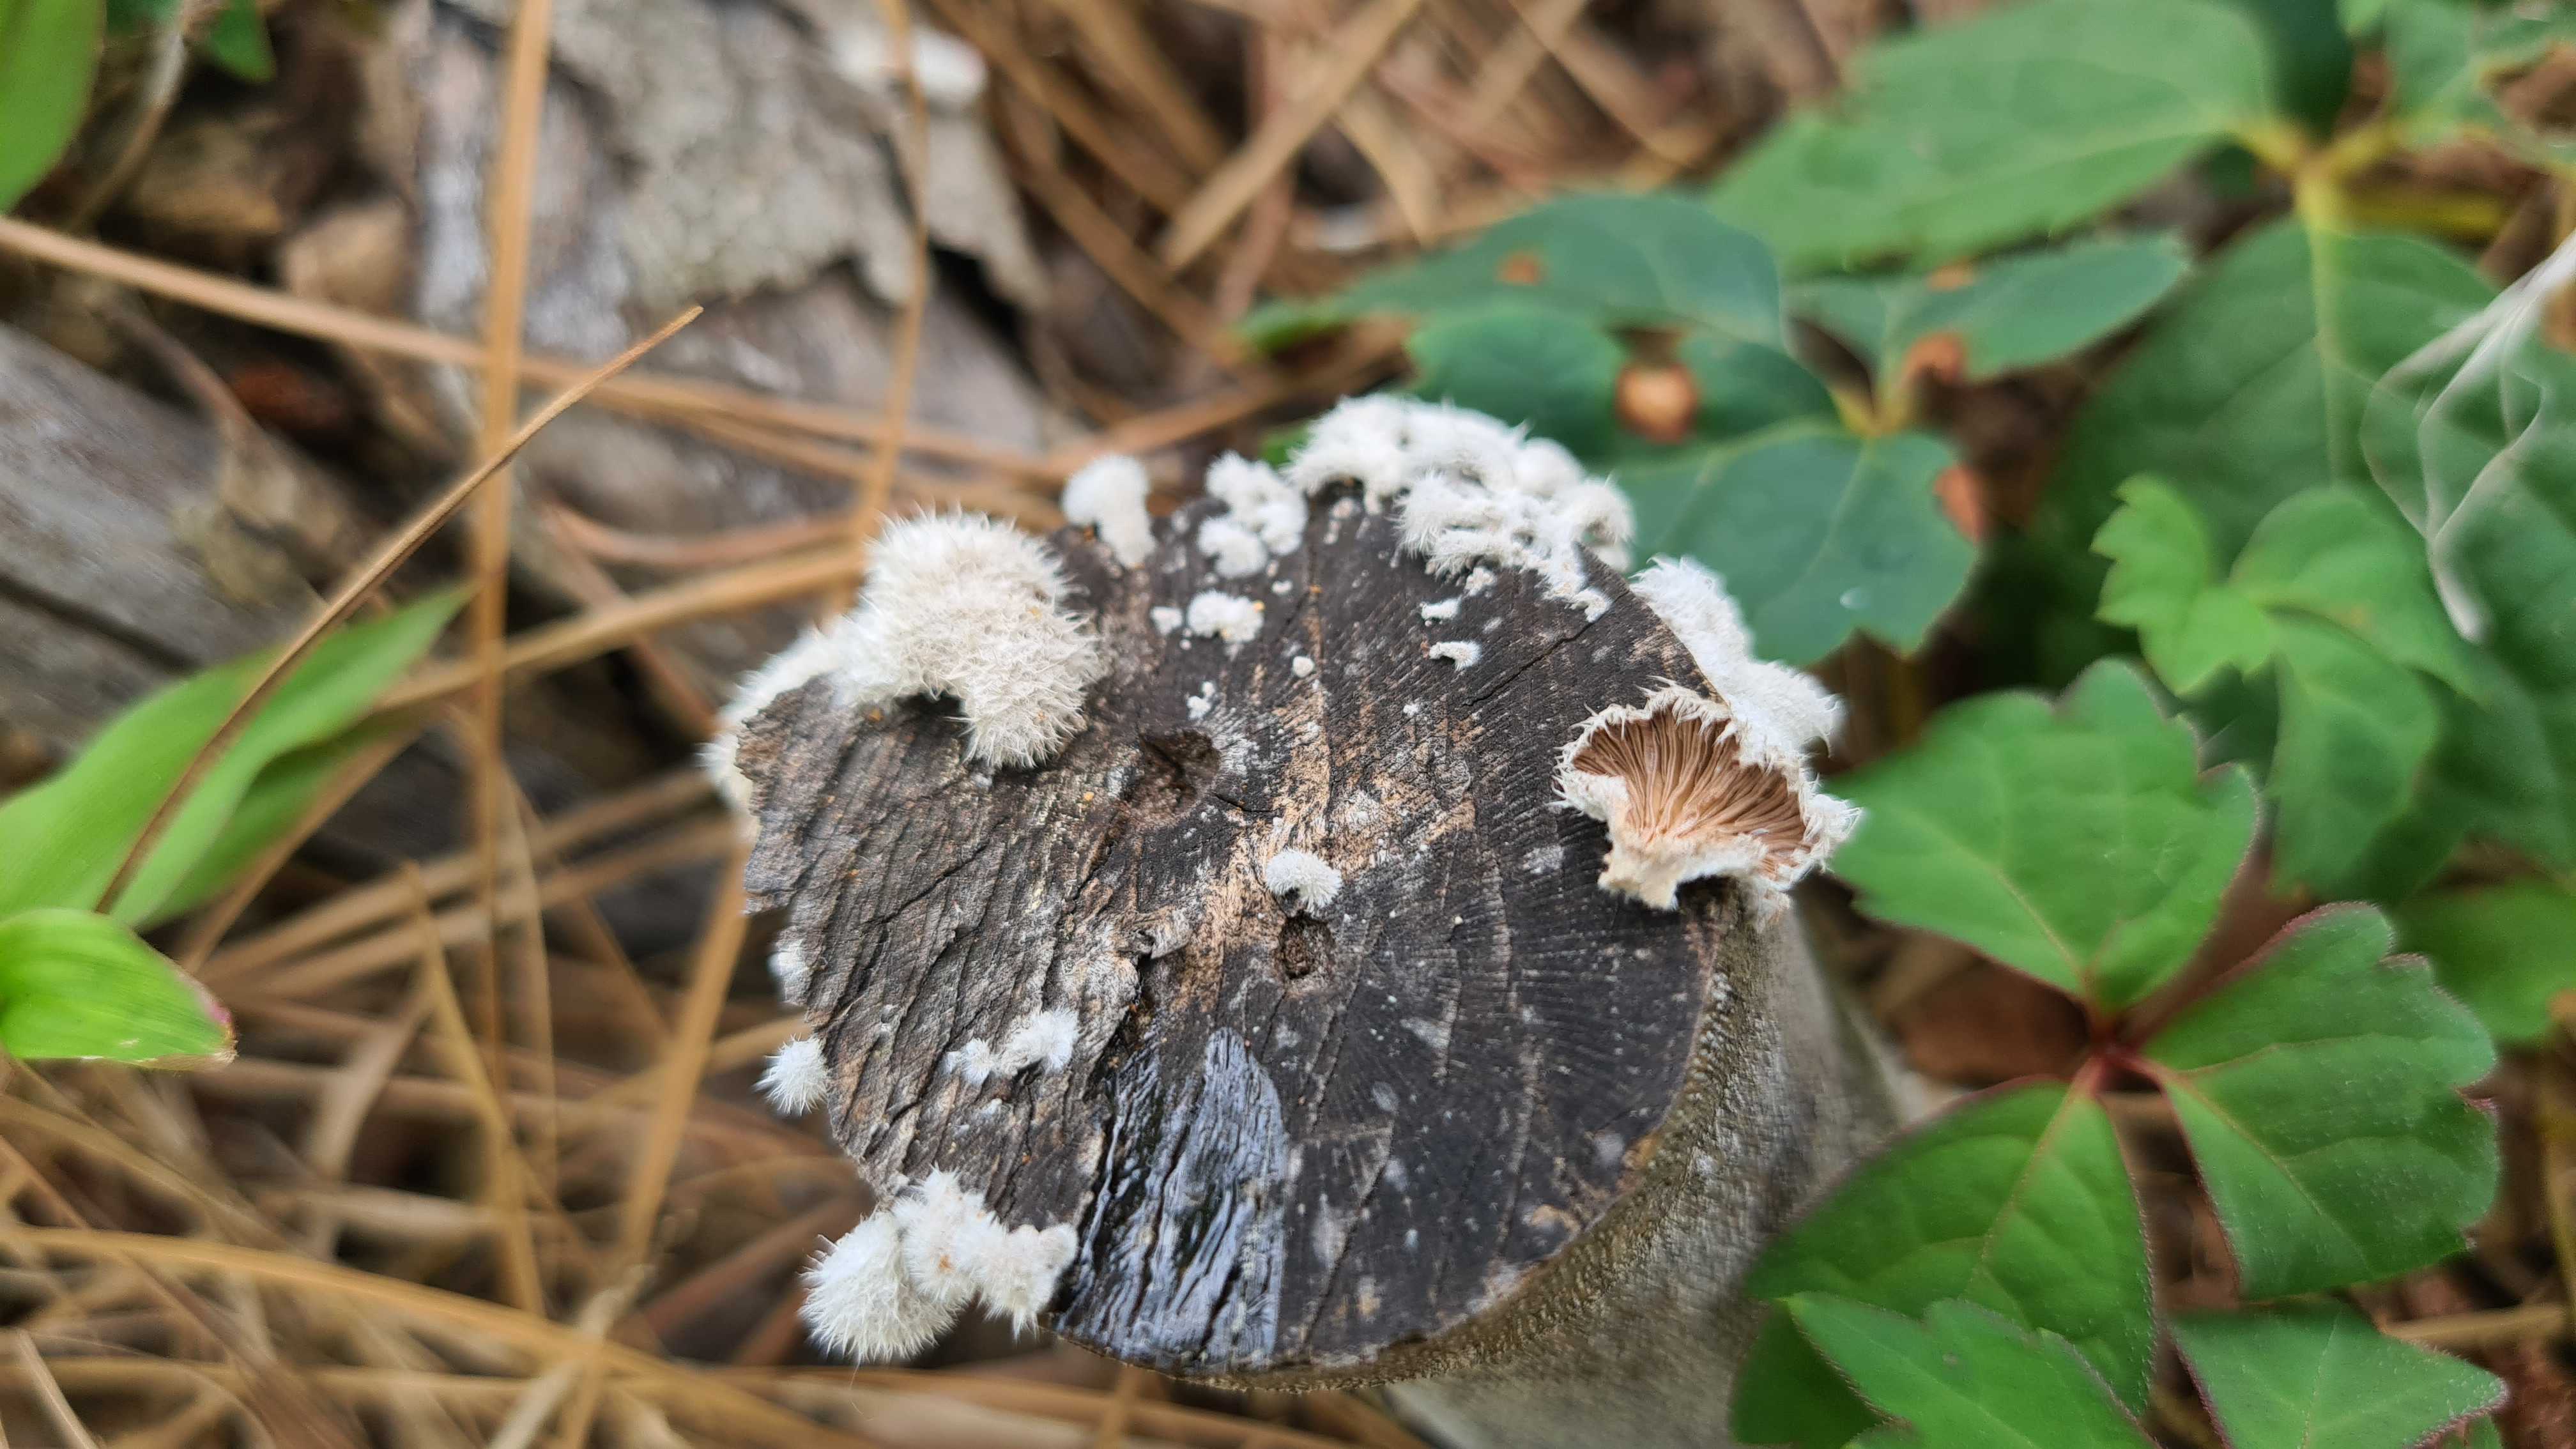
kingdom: Fungi
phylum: Basidiomycota
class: Agaricomycetes
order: Agaricales
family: Schizophyllaceae
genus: Schizophyllum
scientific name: Schizophyllum commune
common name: kløvblad
